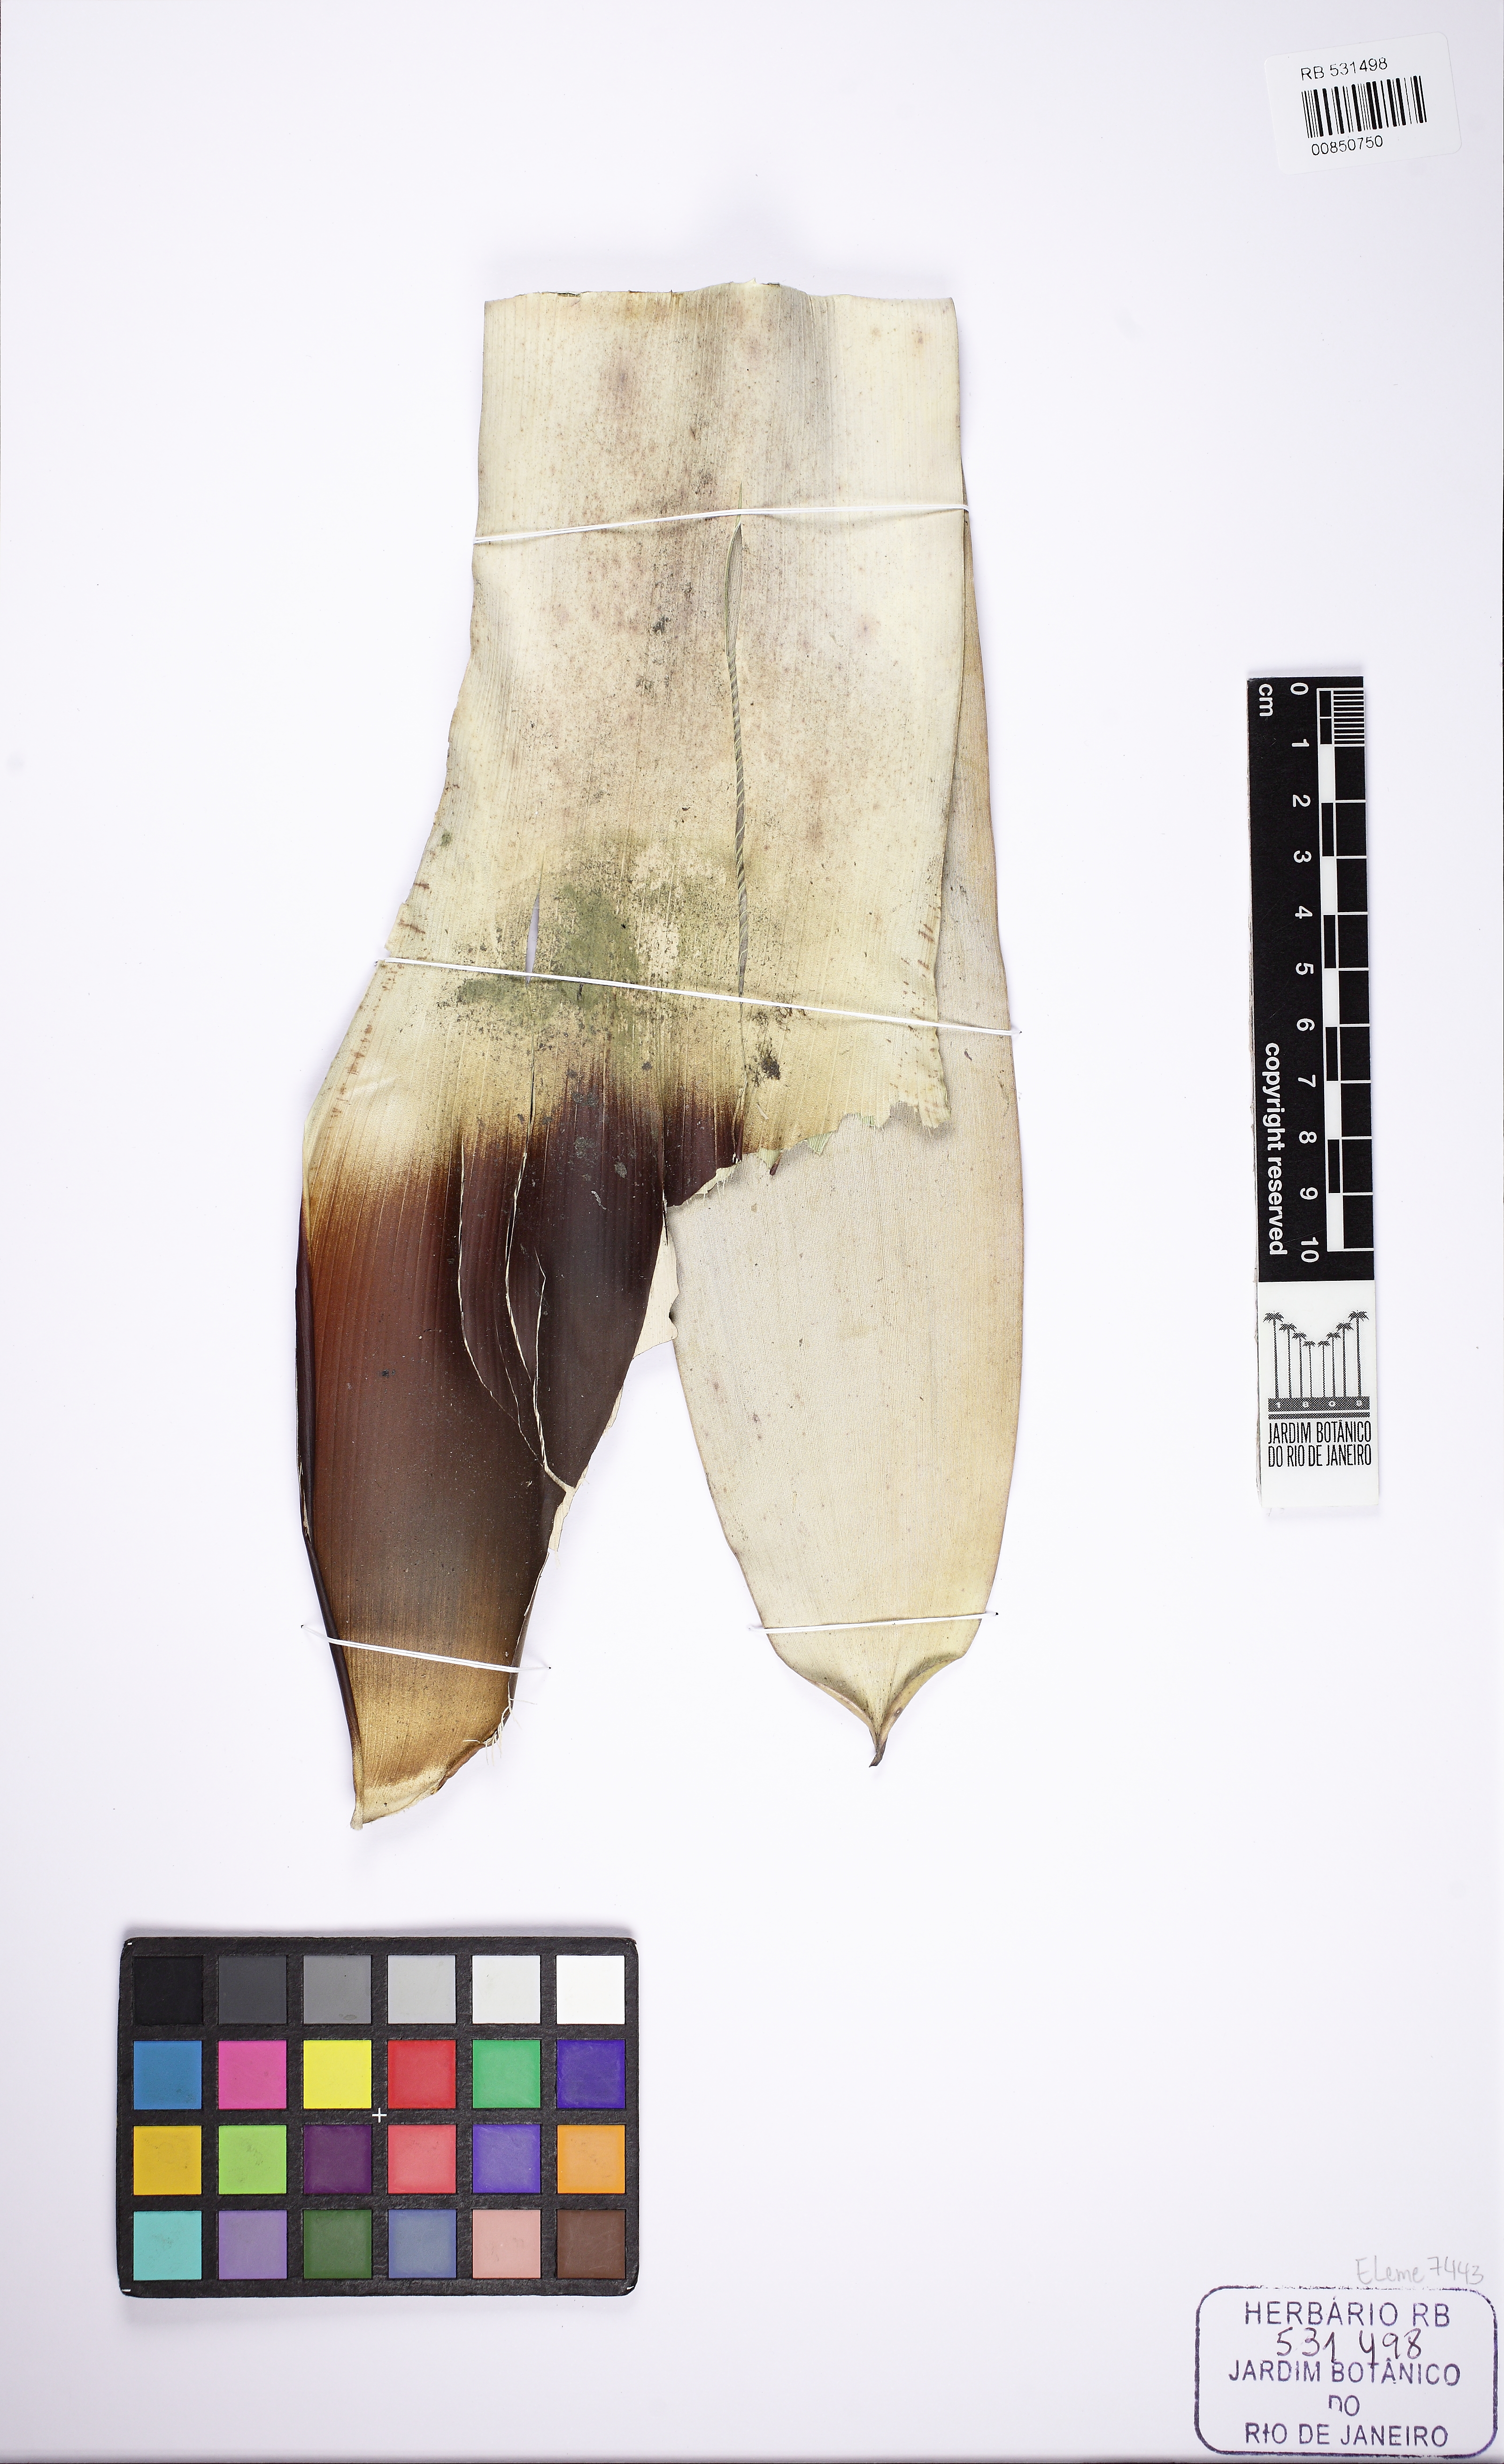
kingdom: Plantae
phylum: Tracheophyta
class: Liliopsida
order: Poales
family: Bromeliaceae
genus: Vriesea
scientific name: Vriesea portentosa
